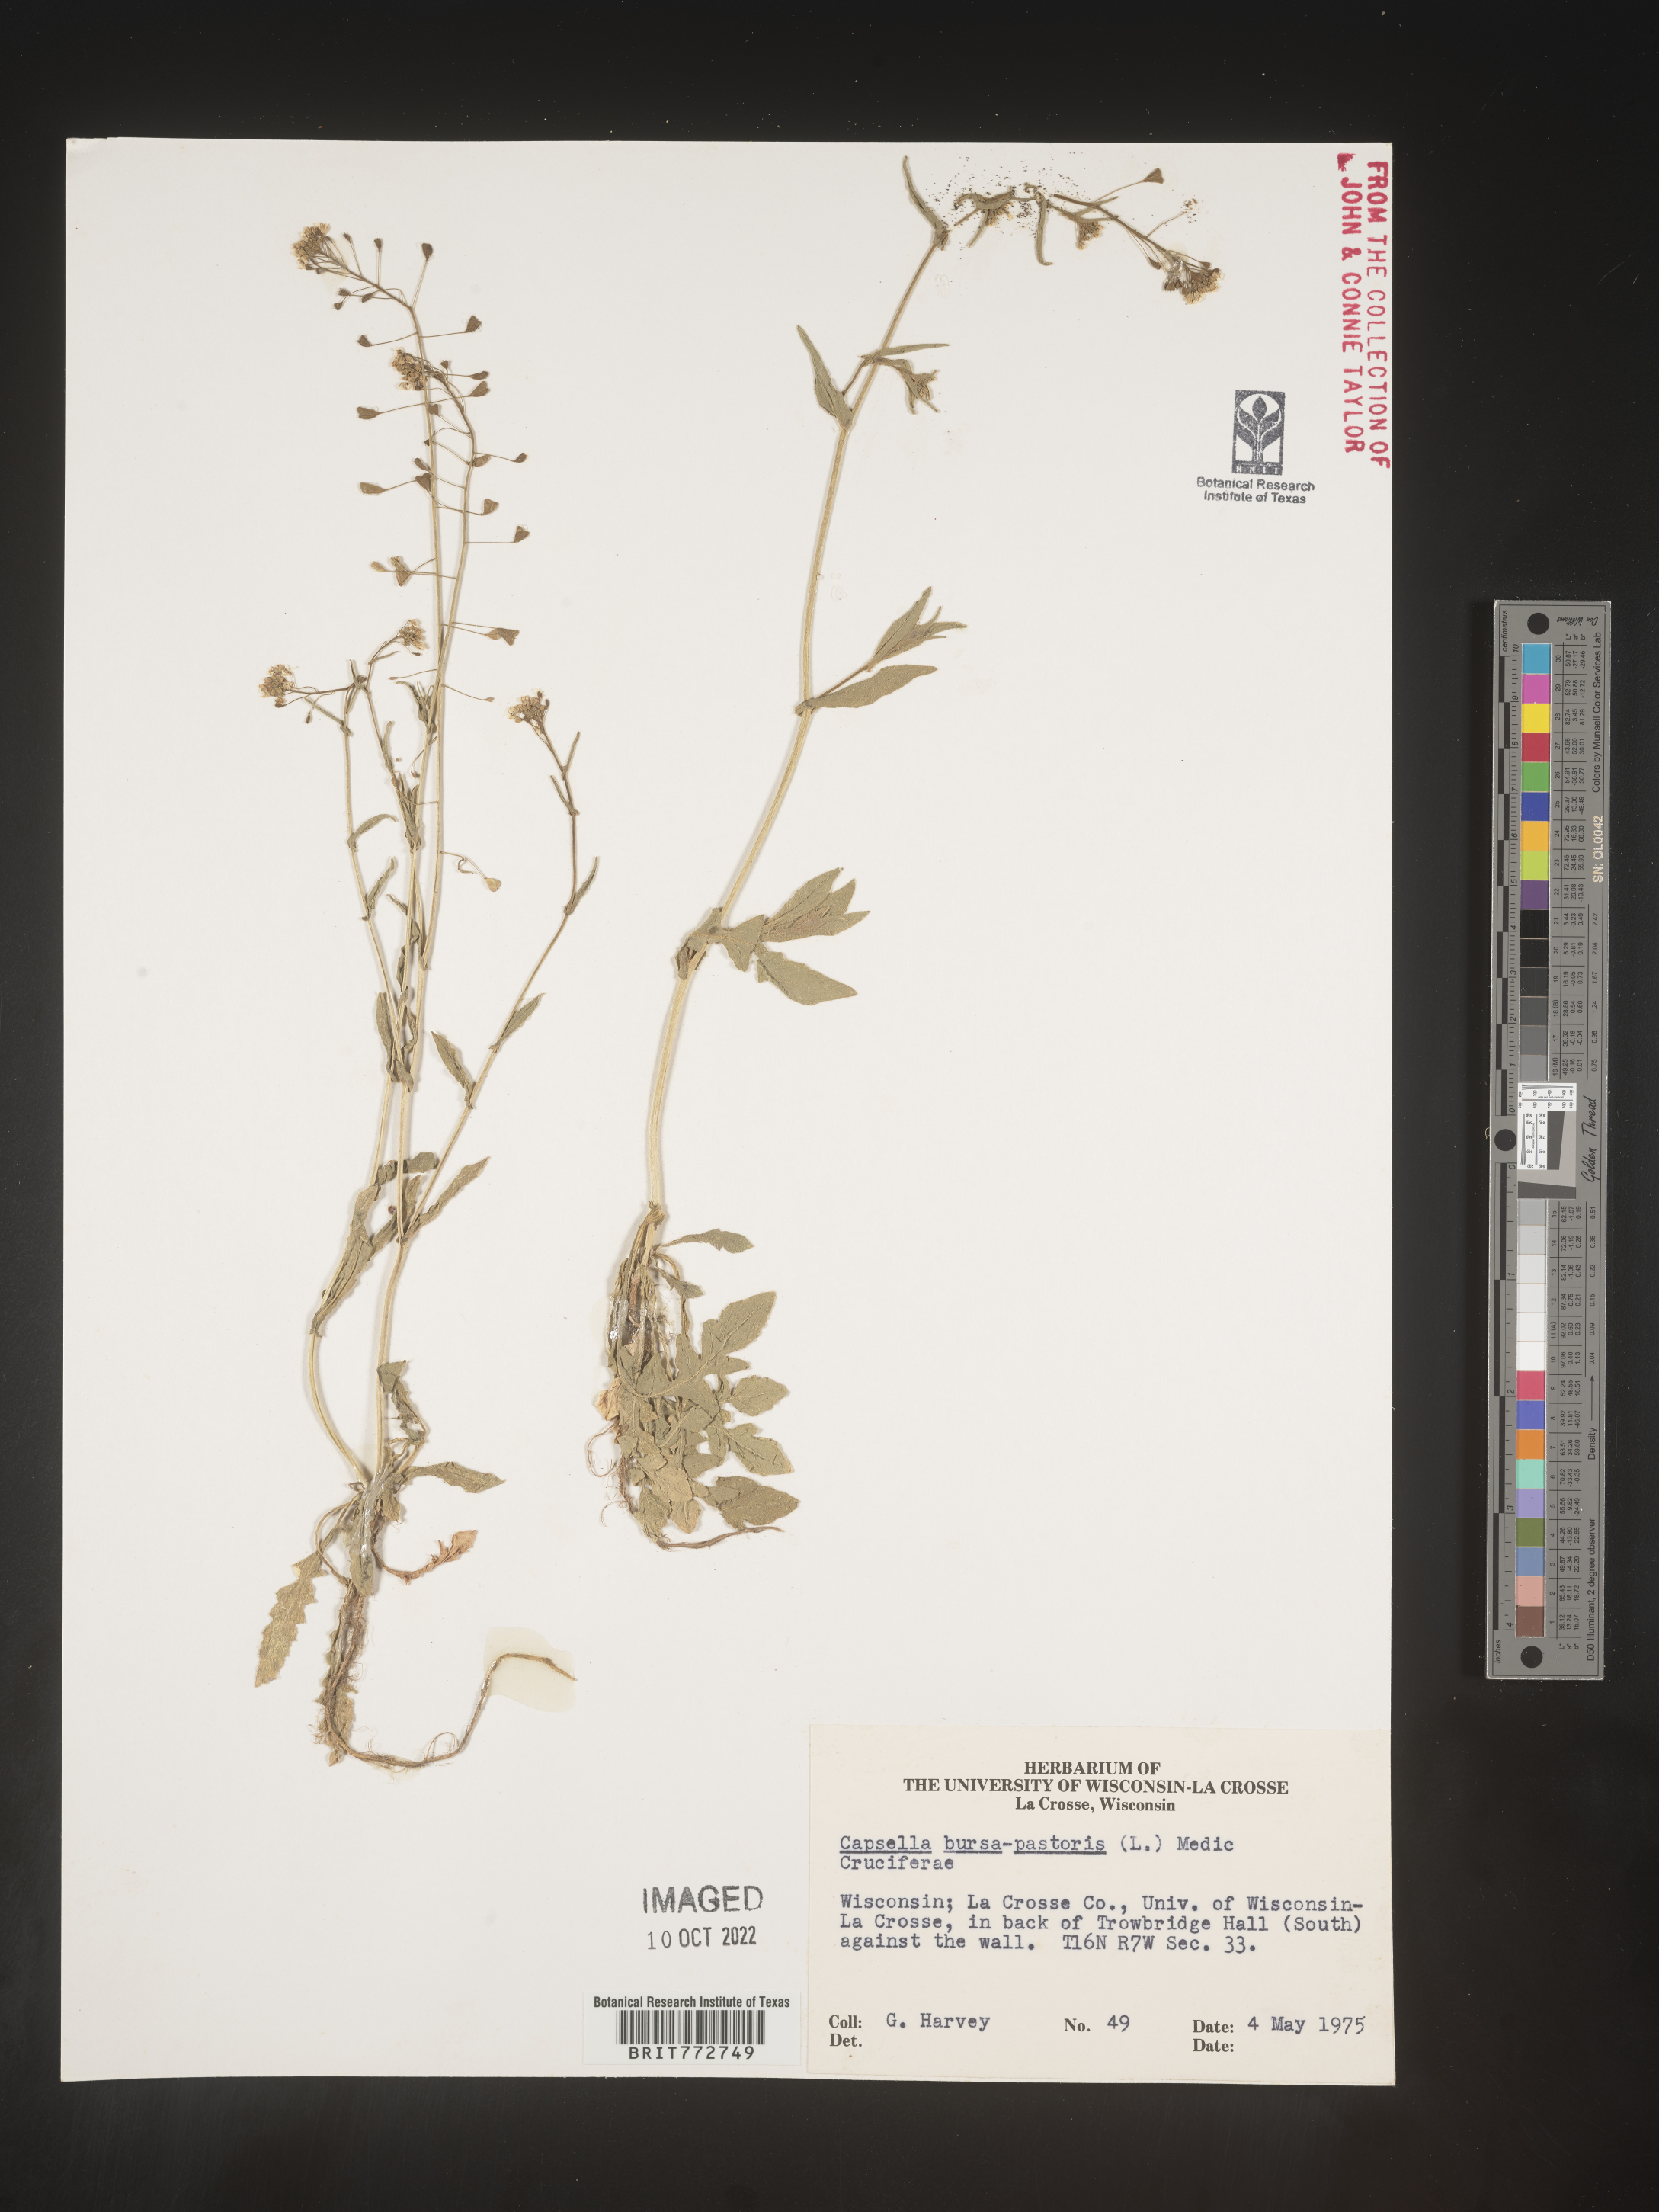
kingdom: Plantae
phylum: Tracheophyta
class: Magnoliopsida
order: Brassicales
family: Brassicaceae
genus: Capsella
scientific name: Capsella bursa-pastoris
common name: Shepherd's purse
